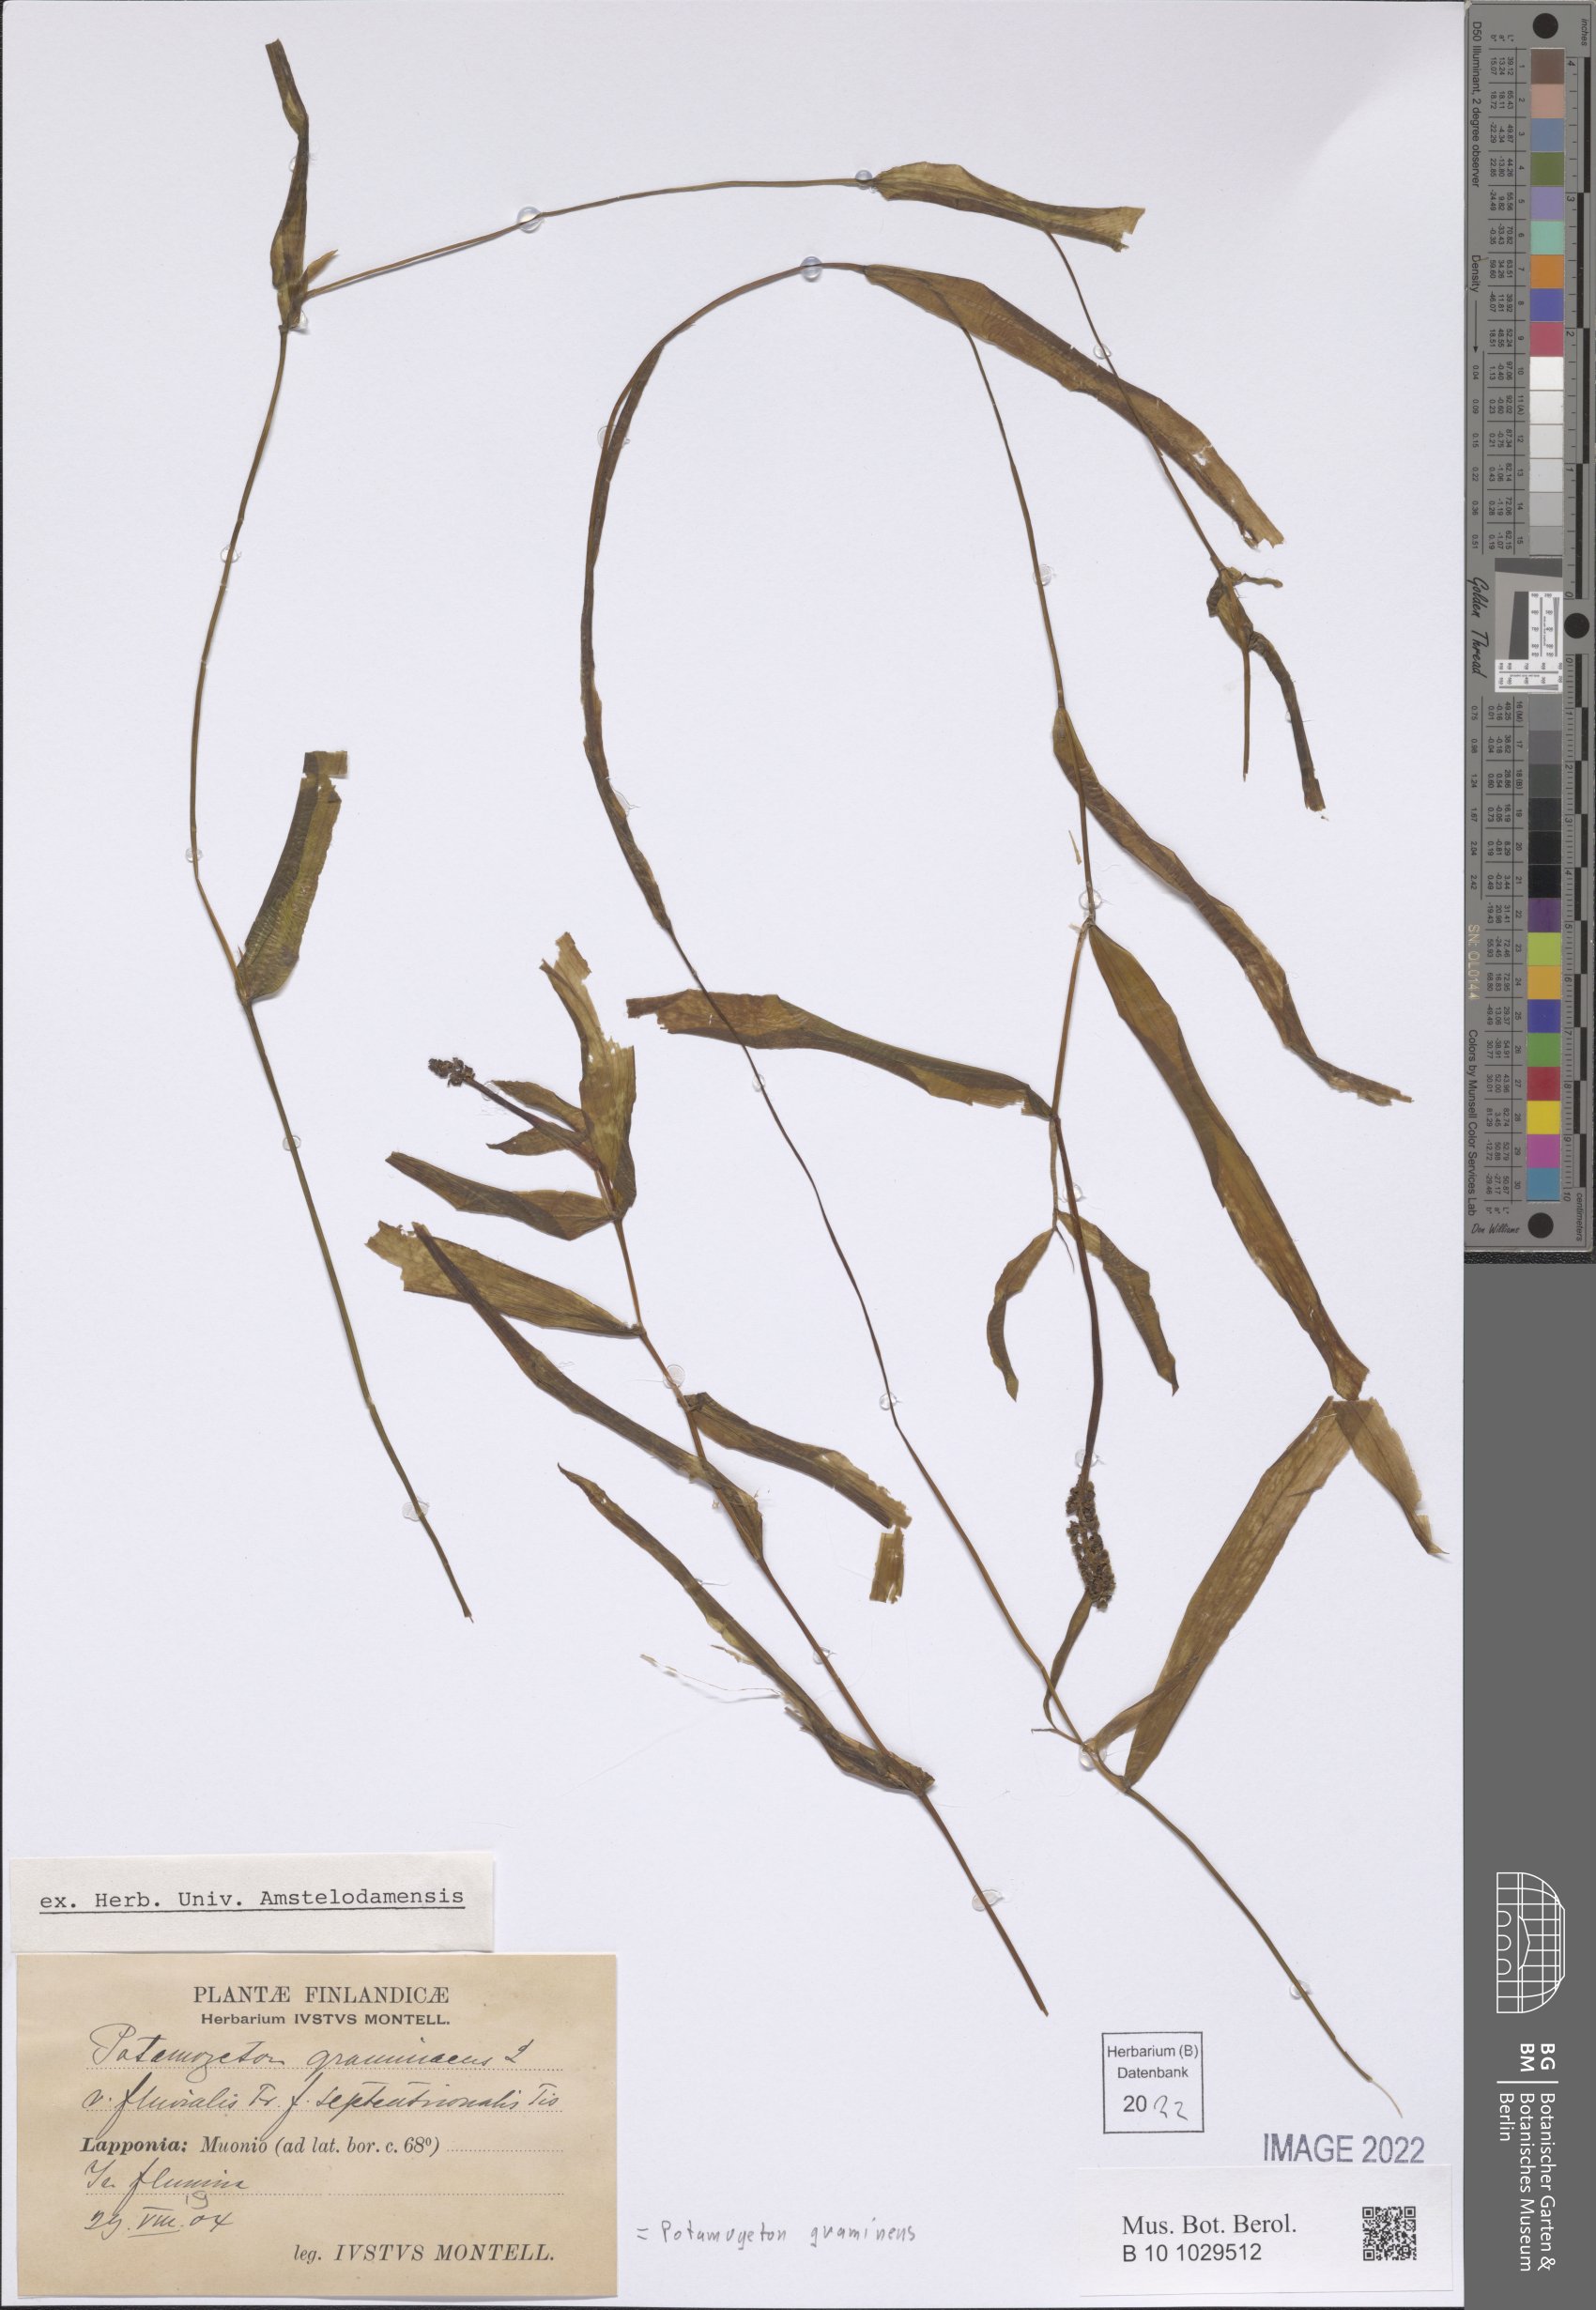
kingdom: Plantae
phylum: Tracheophyta
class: Liliopsida
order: Alismatales
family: Potamogetonaceae
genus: Potamogeton
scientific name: Potamogeton gramineus
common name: Various-leaved pondweed
